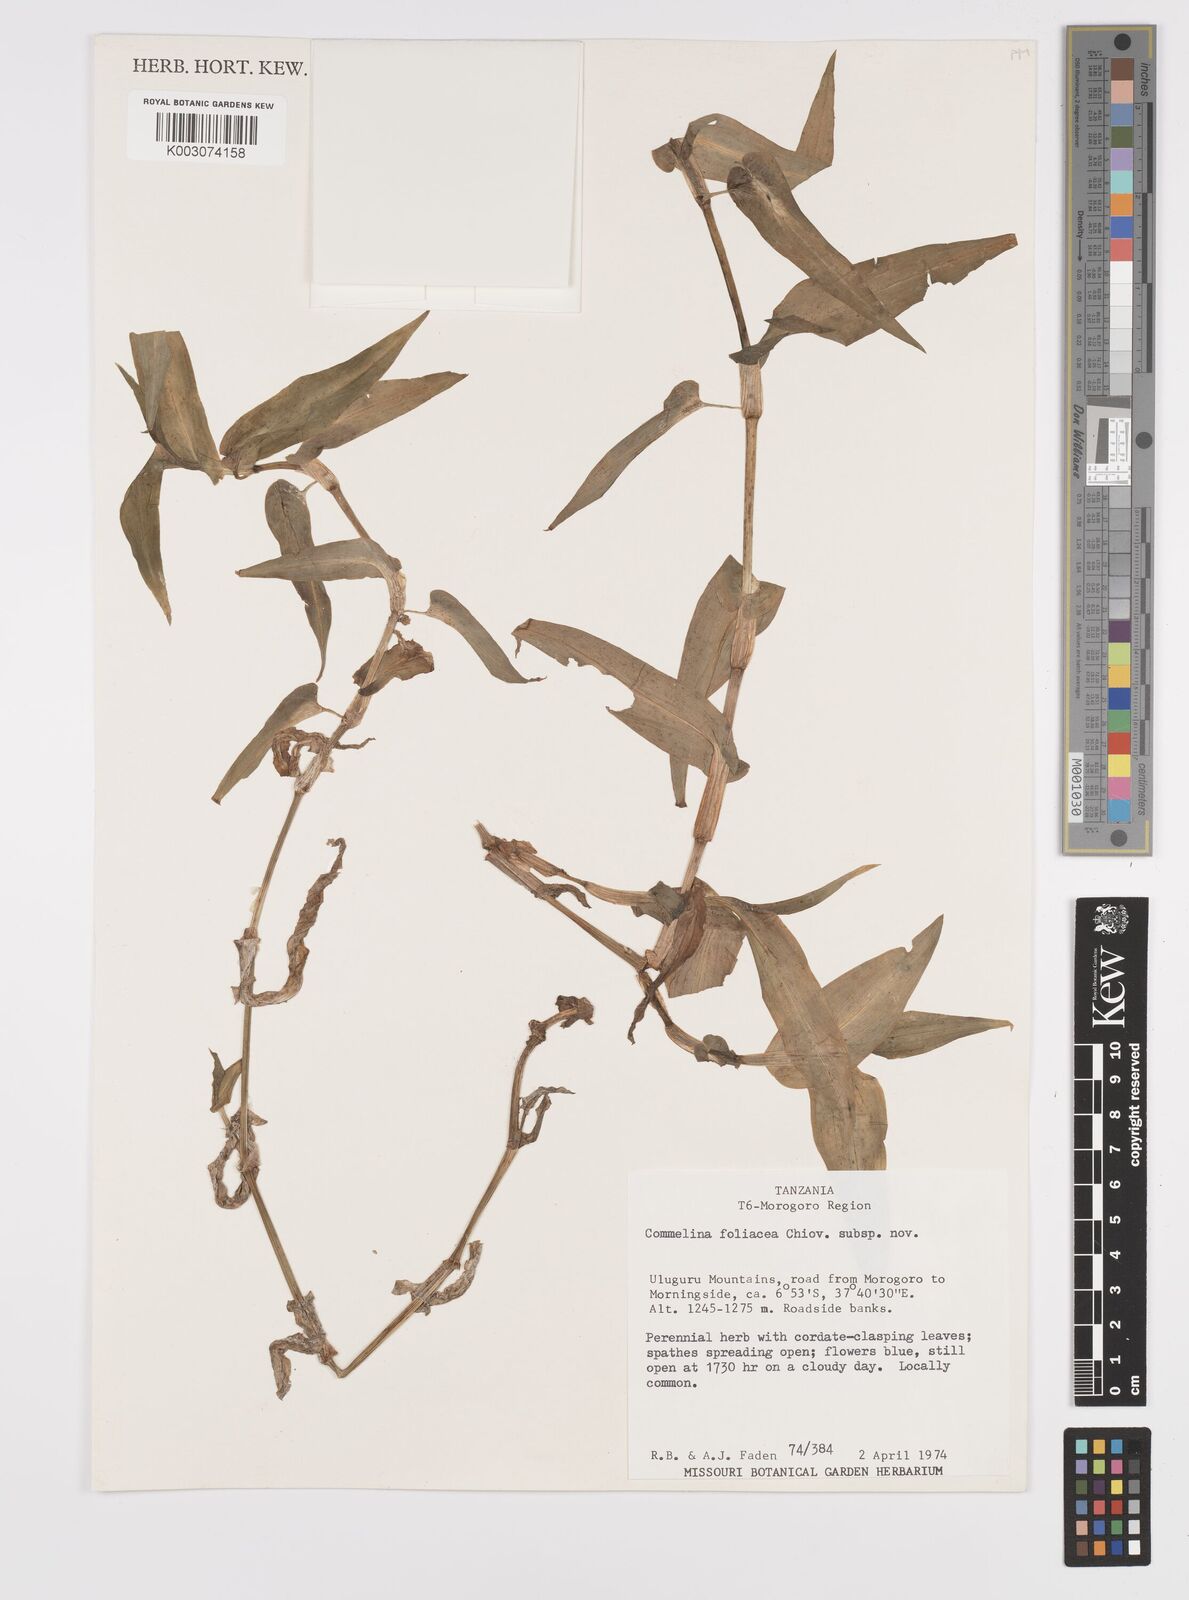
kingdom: Plantae
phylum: Tracheophyta
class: Liliopsida
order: Commelinales
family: Commelinaceae
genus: Commelina
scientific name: Commelina foliacea
